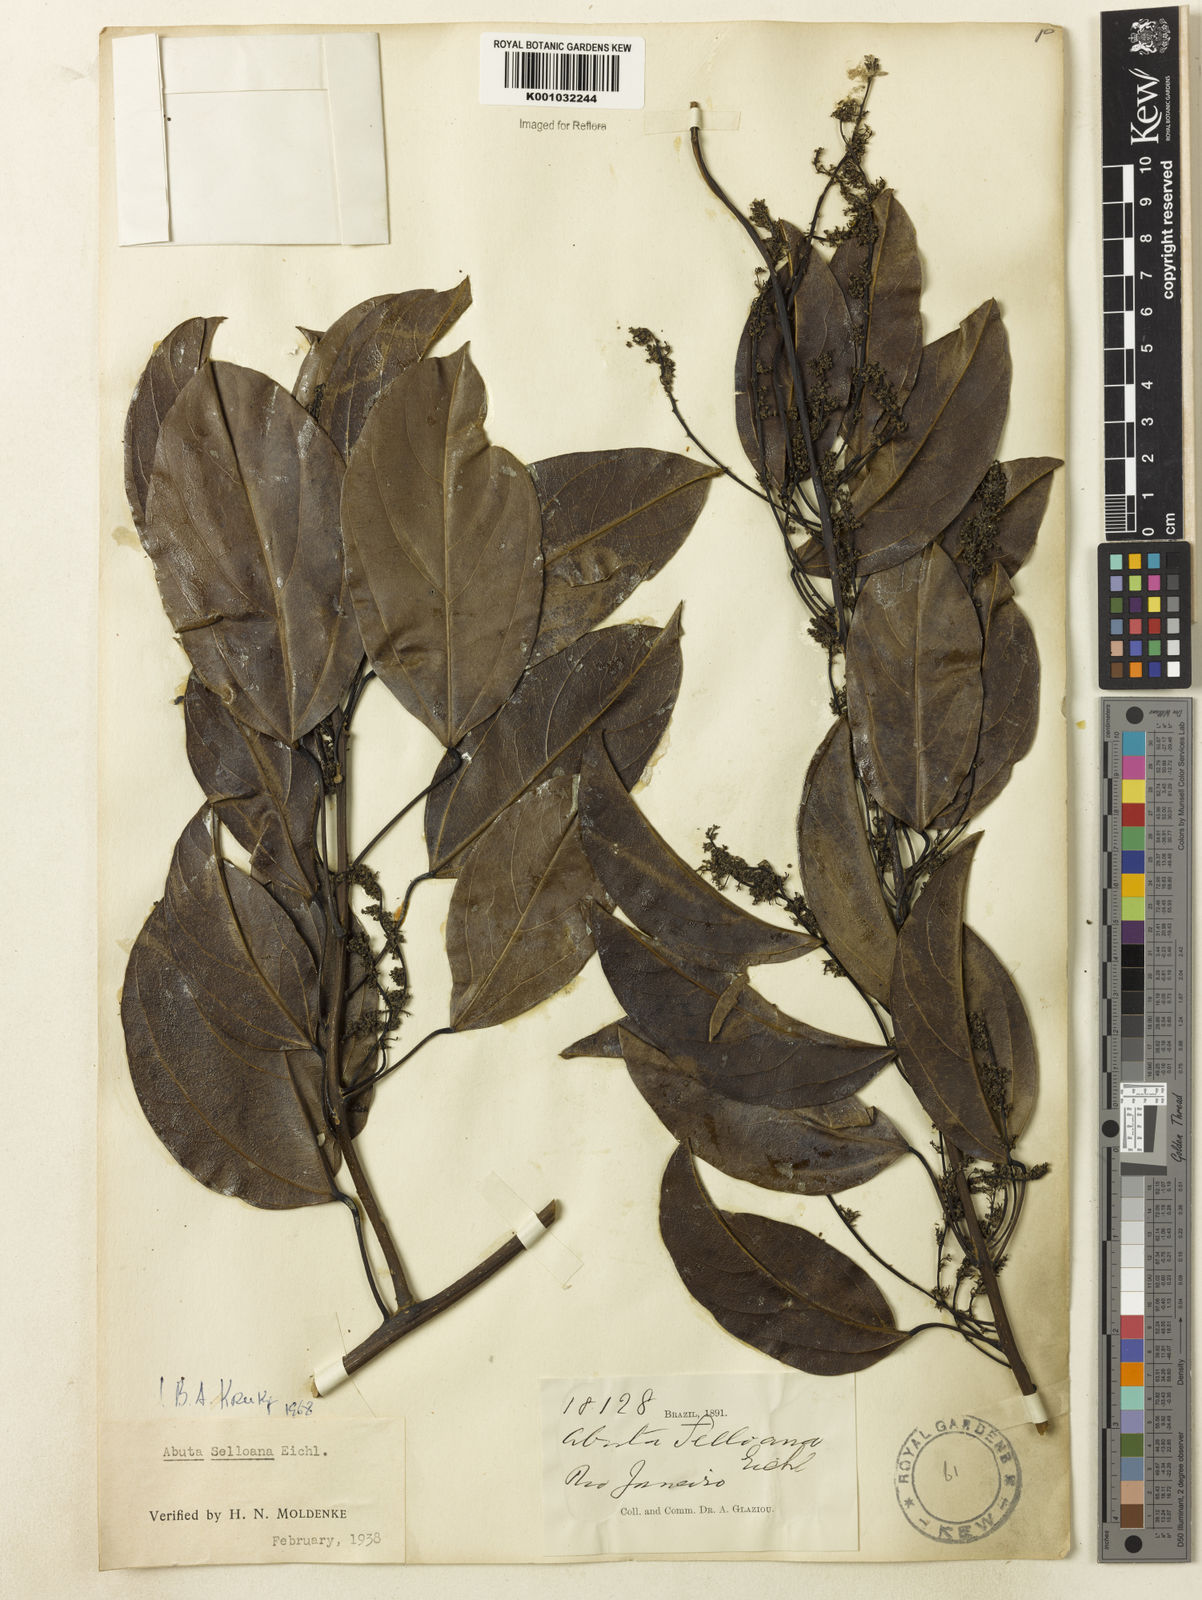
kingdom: Plantae
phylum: Tracheophyta
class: Magnoliopsida
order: Ranunculales
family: Menispermaceae
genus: Abuta
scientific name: Abuta selloana
